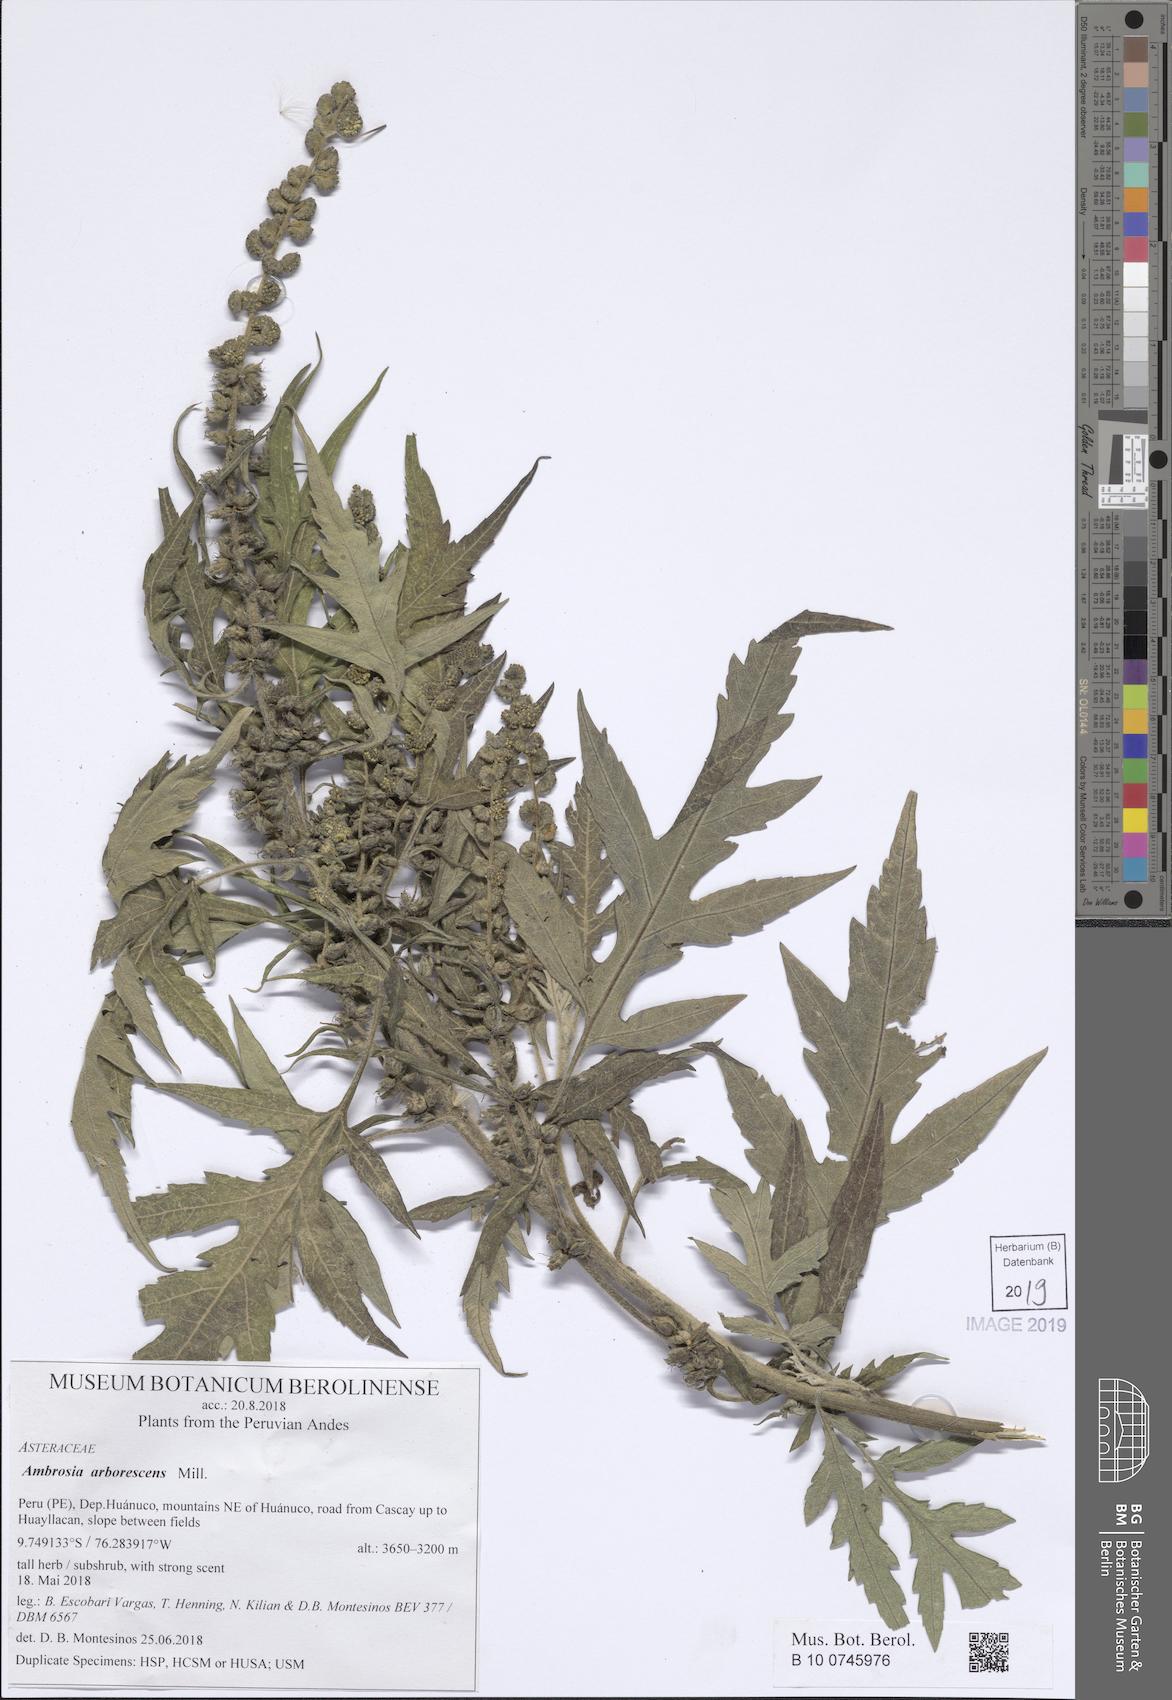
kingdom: Plantae
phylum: Tracheophyta
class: Magnoliopsida
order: Asterales
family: Asteraceae
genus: Ambrosia
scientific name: Ambrosia arborescens
